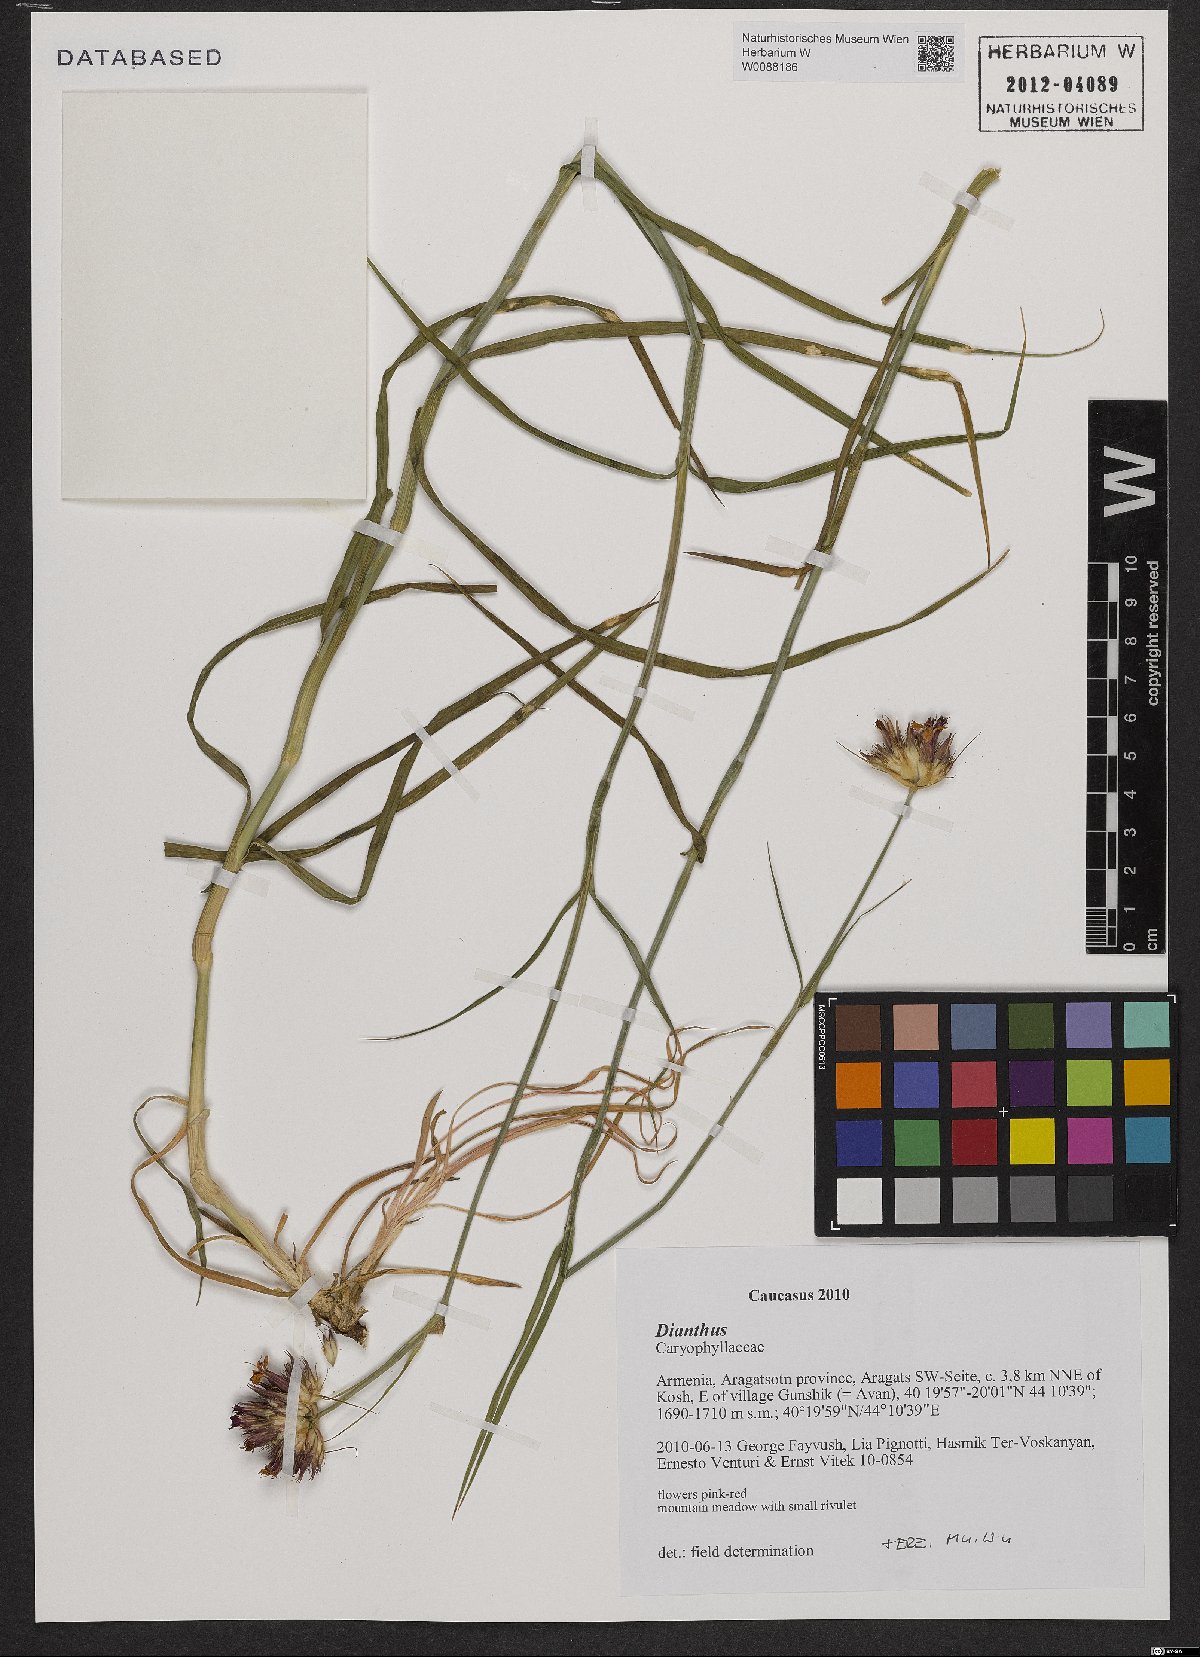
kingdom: Plantae
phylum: Tracheophyta
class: Magnoliopsida
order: Caryophyllales
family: Caryophyllaceae
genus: Dianthus
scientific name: Dianthus
